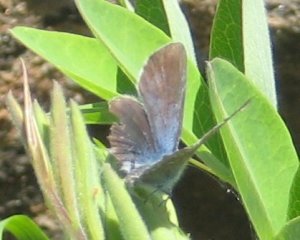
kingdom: Animalia
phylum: Arthropoda
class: Insecta
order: Lepidoptera
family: Lycaenidae
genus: Glaucopsyche
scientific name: Glaucopsyche lygdamus
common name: Silvery Blue
